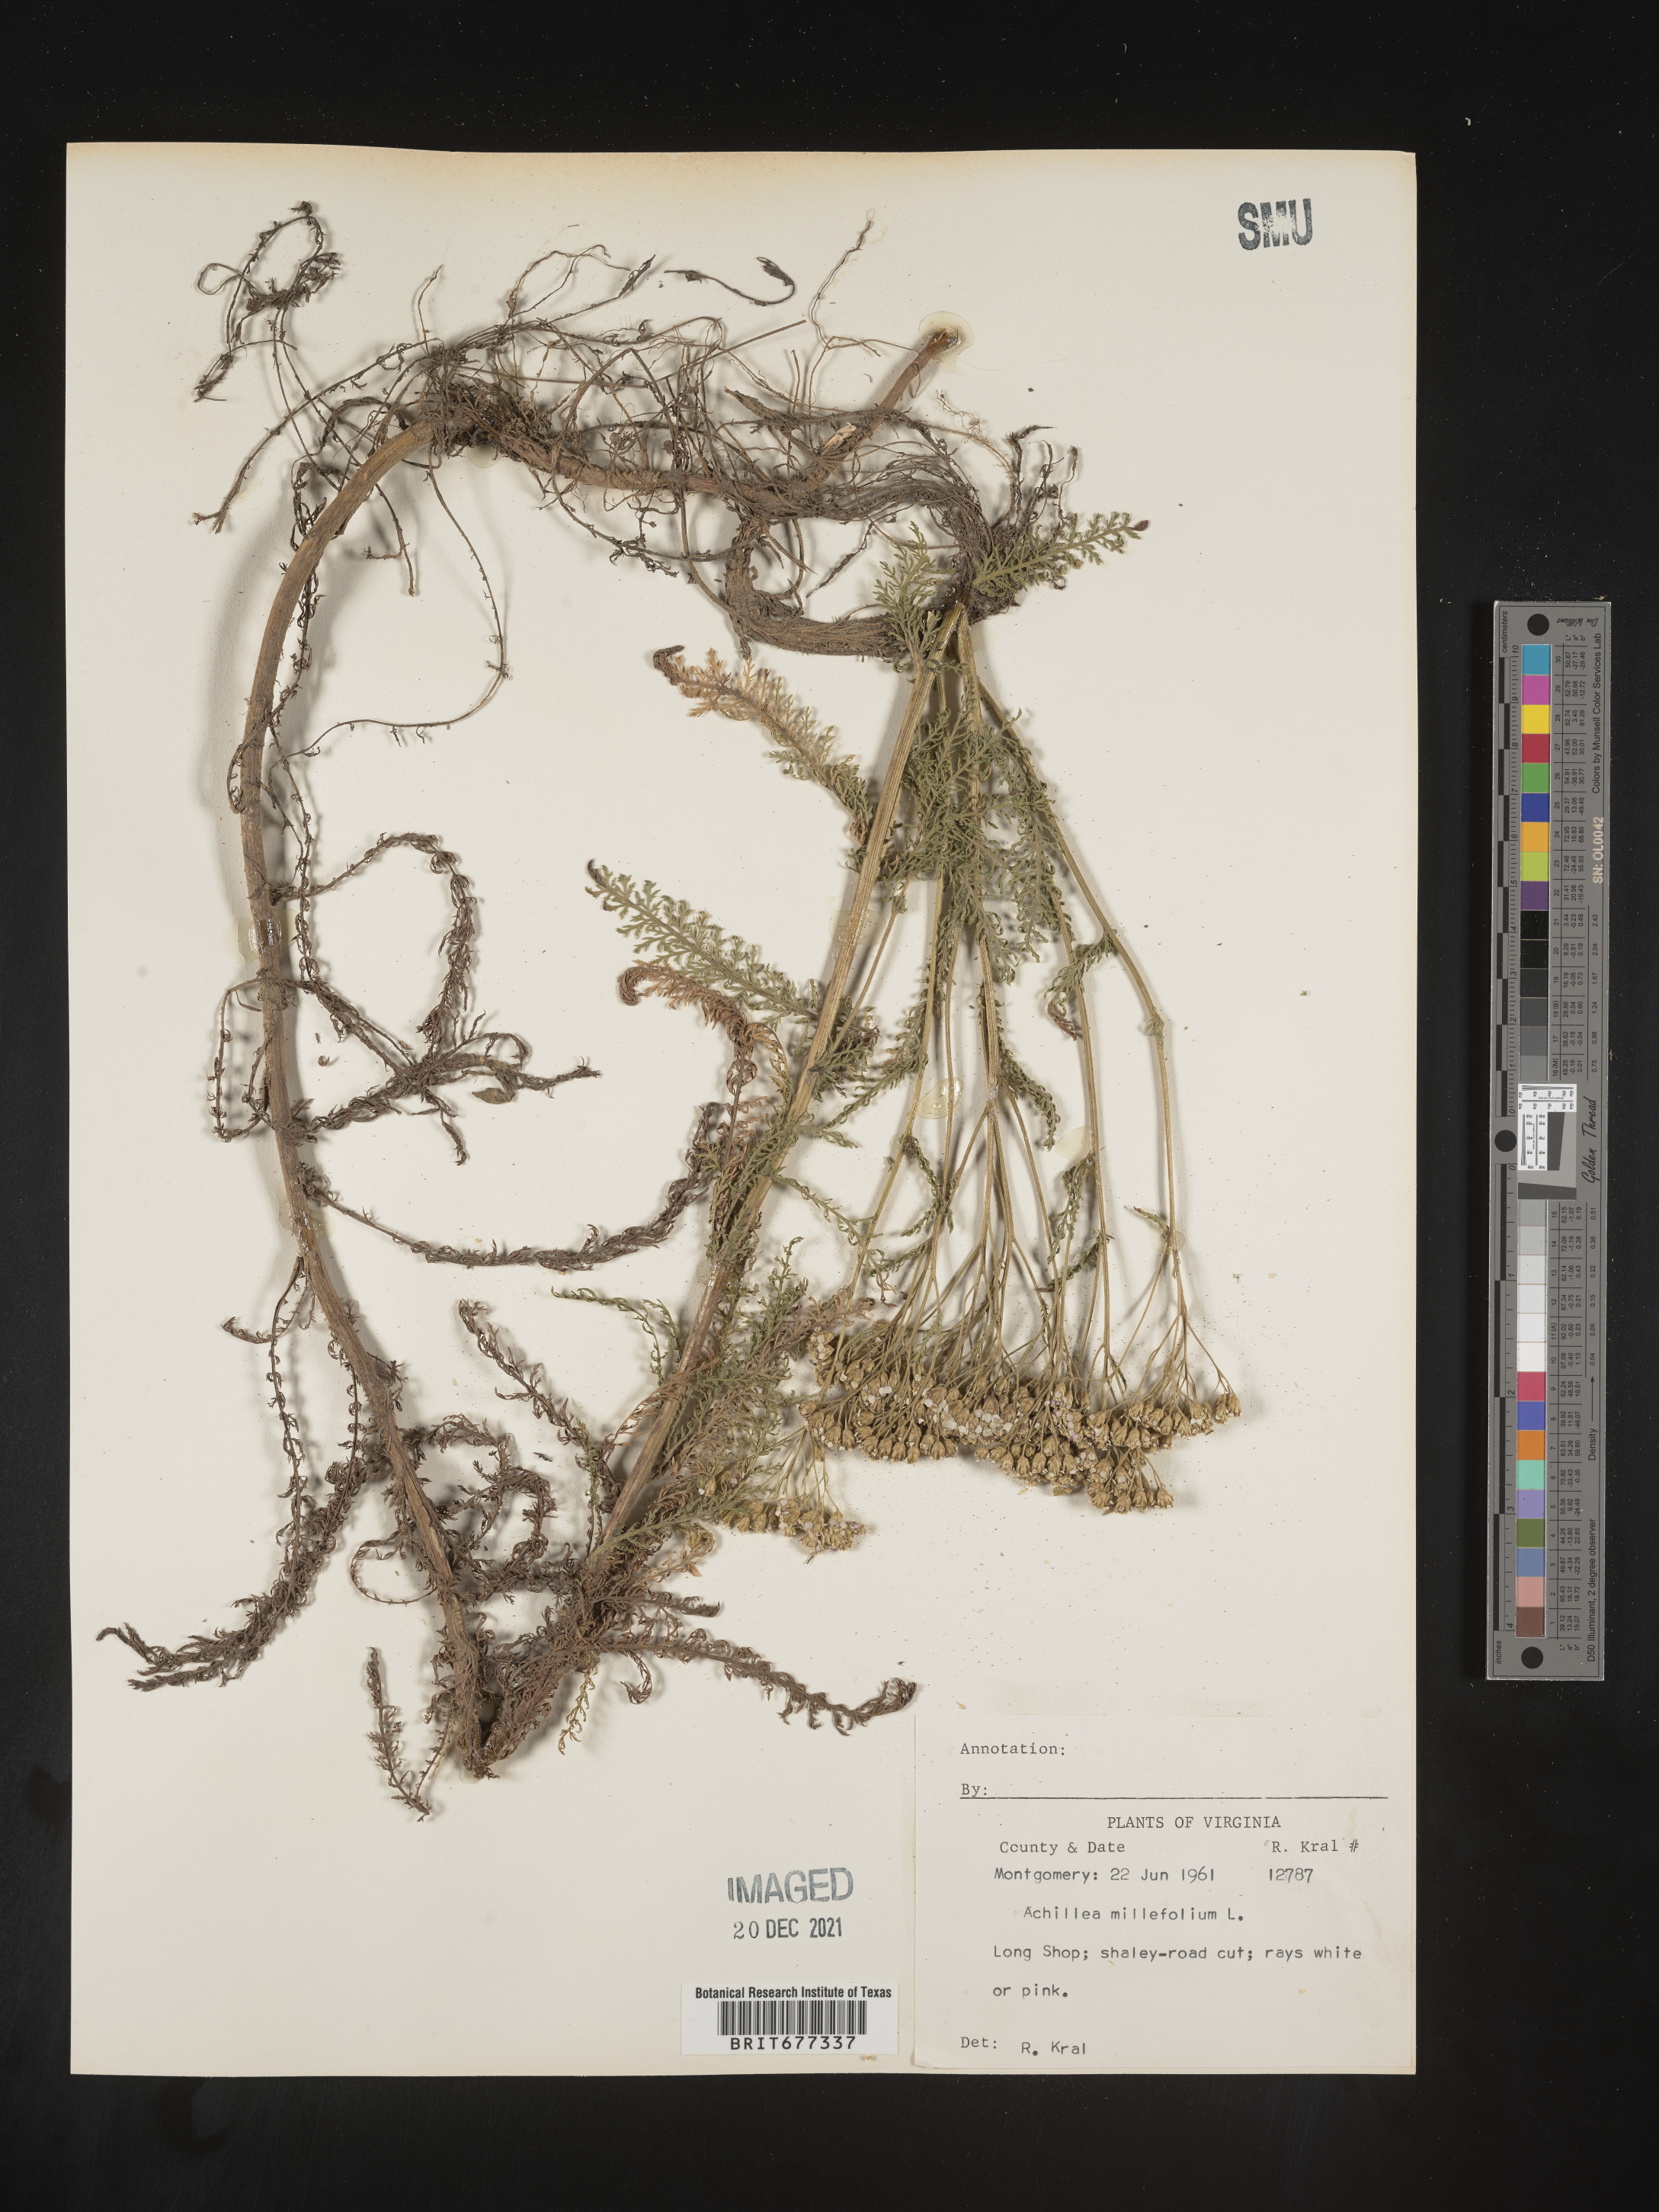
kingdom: Plantae
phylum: Tracheophyta
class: Magnoliopsida
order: Asterales
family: Asteraceae
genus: Achillea
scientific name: Achillea millefolium
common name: Yarrow
